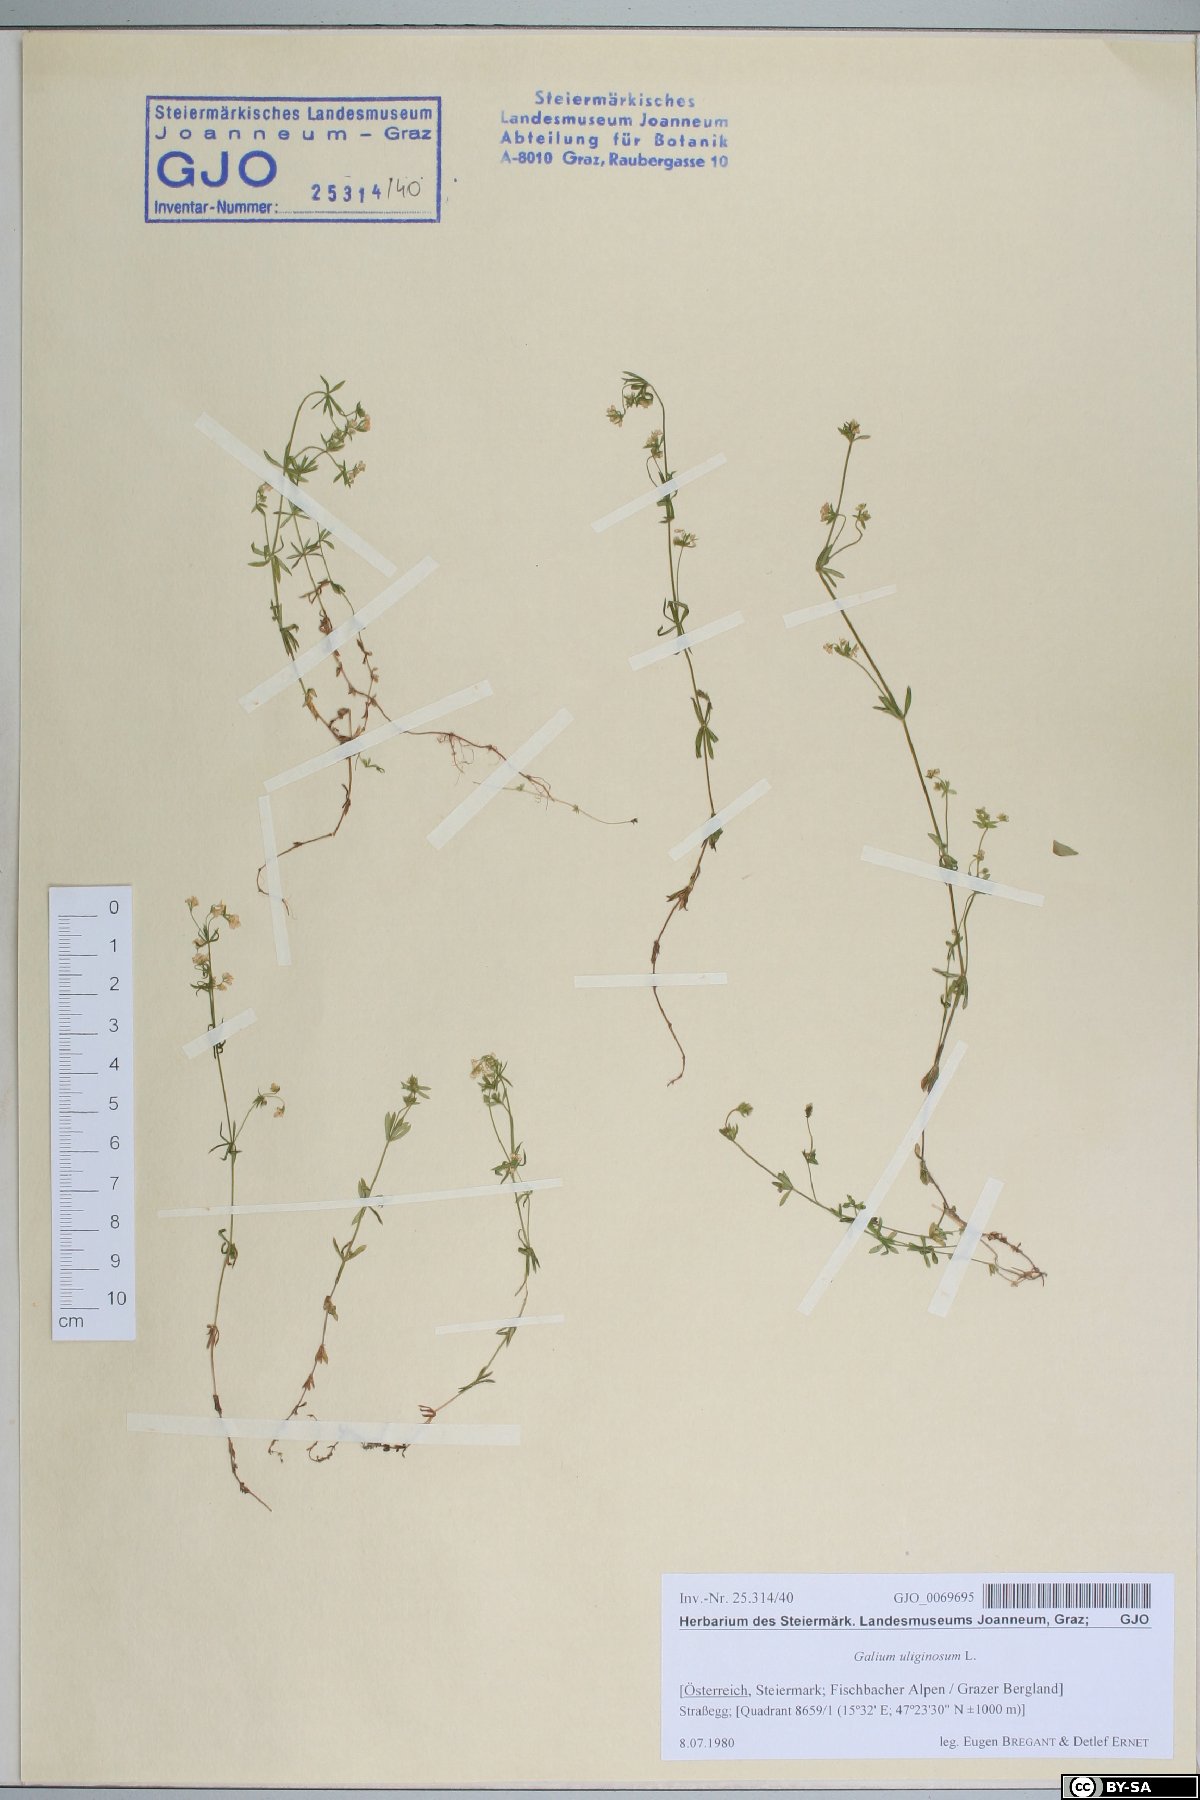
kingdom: Plantae
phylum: Tracheophyta
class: Magnoliopsida
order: Gentianales
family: Rubiaceae
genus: Galium
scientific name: Galium uliginosum
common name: Fen bedstraw
